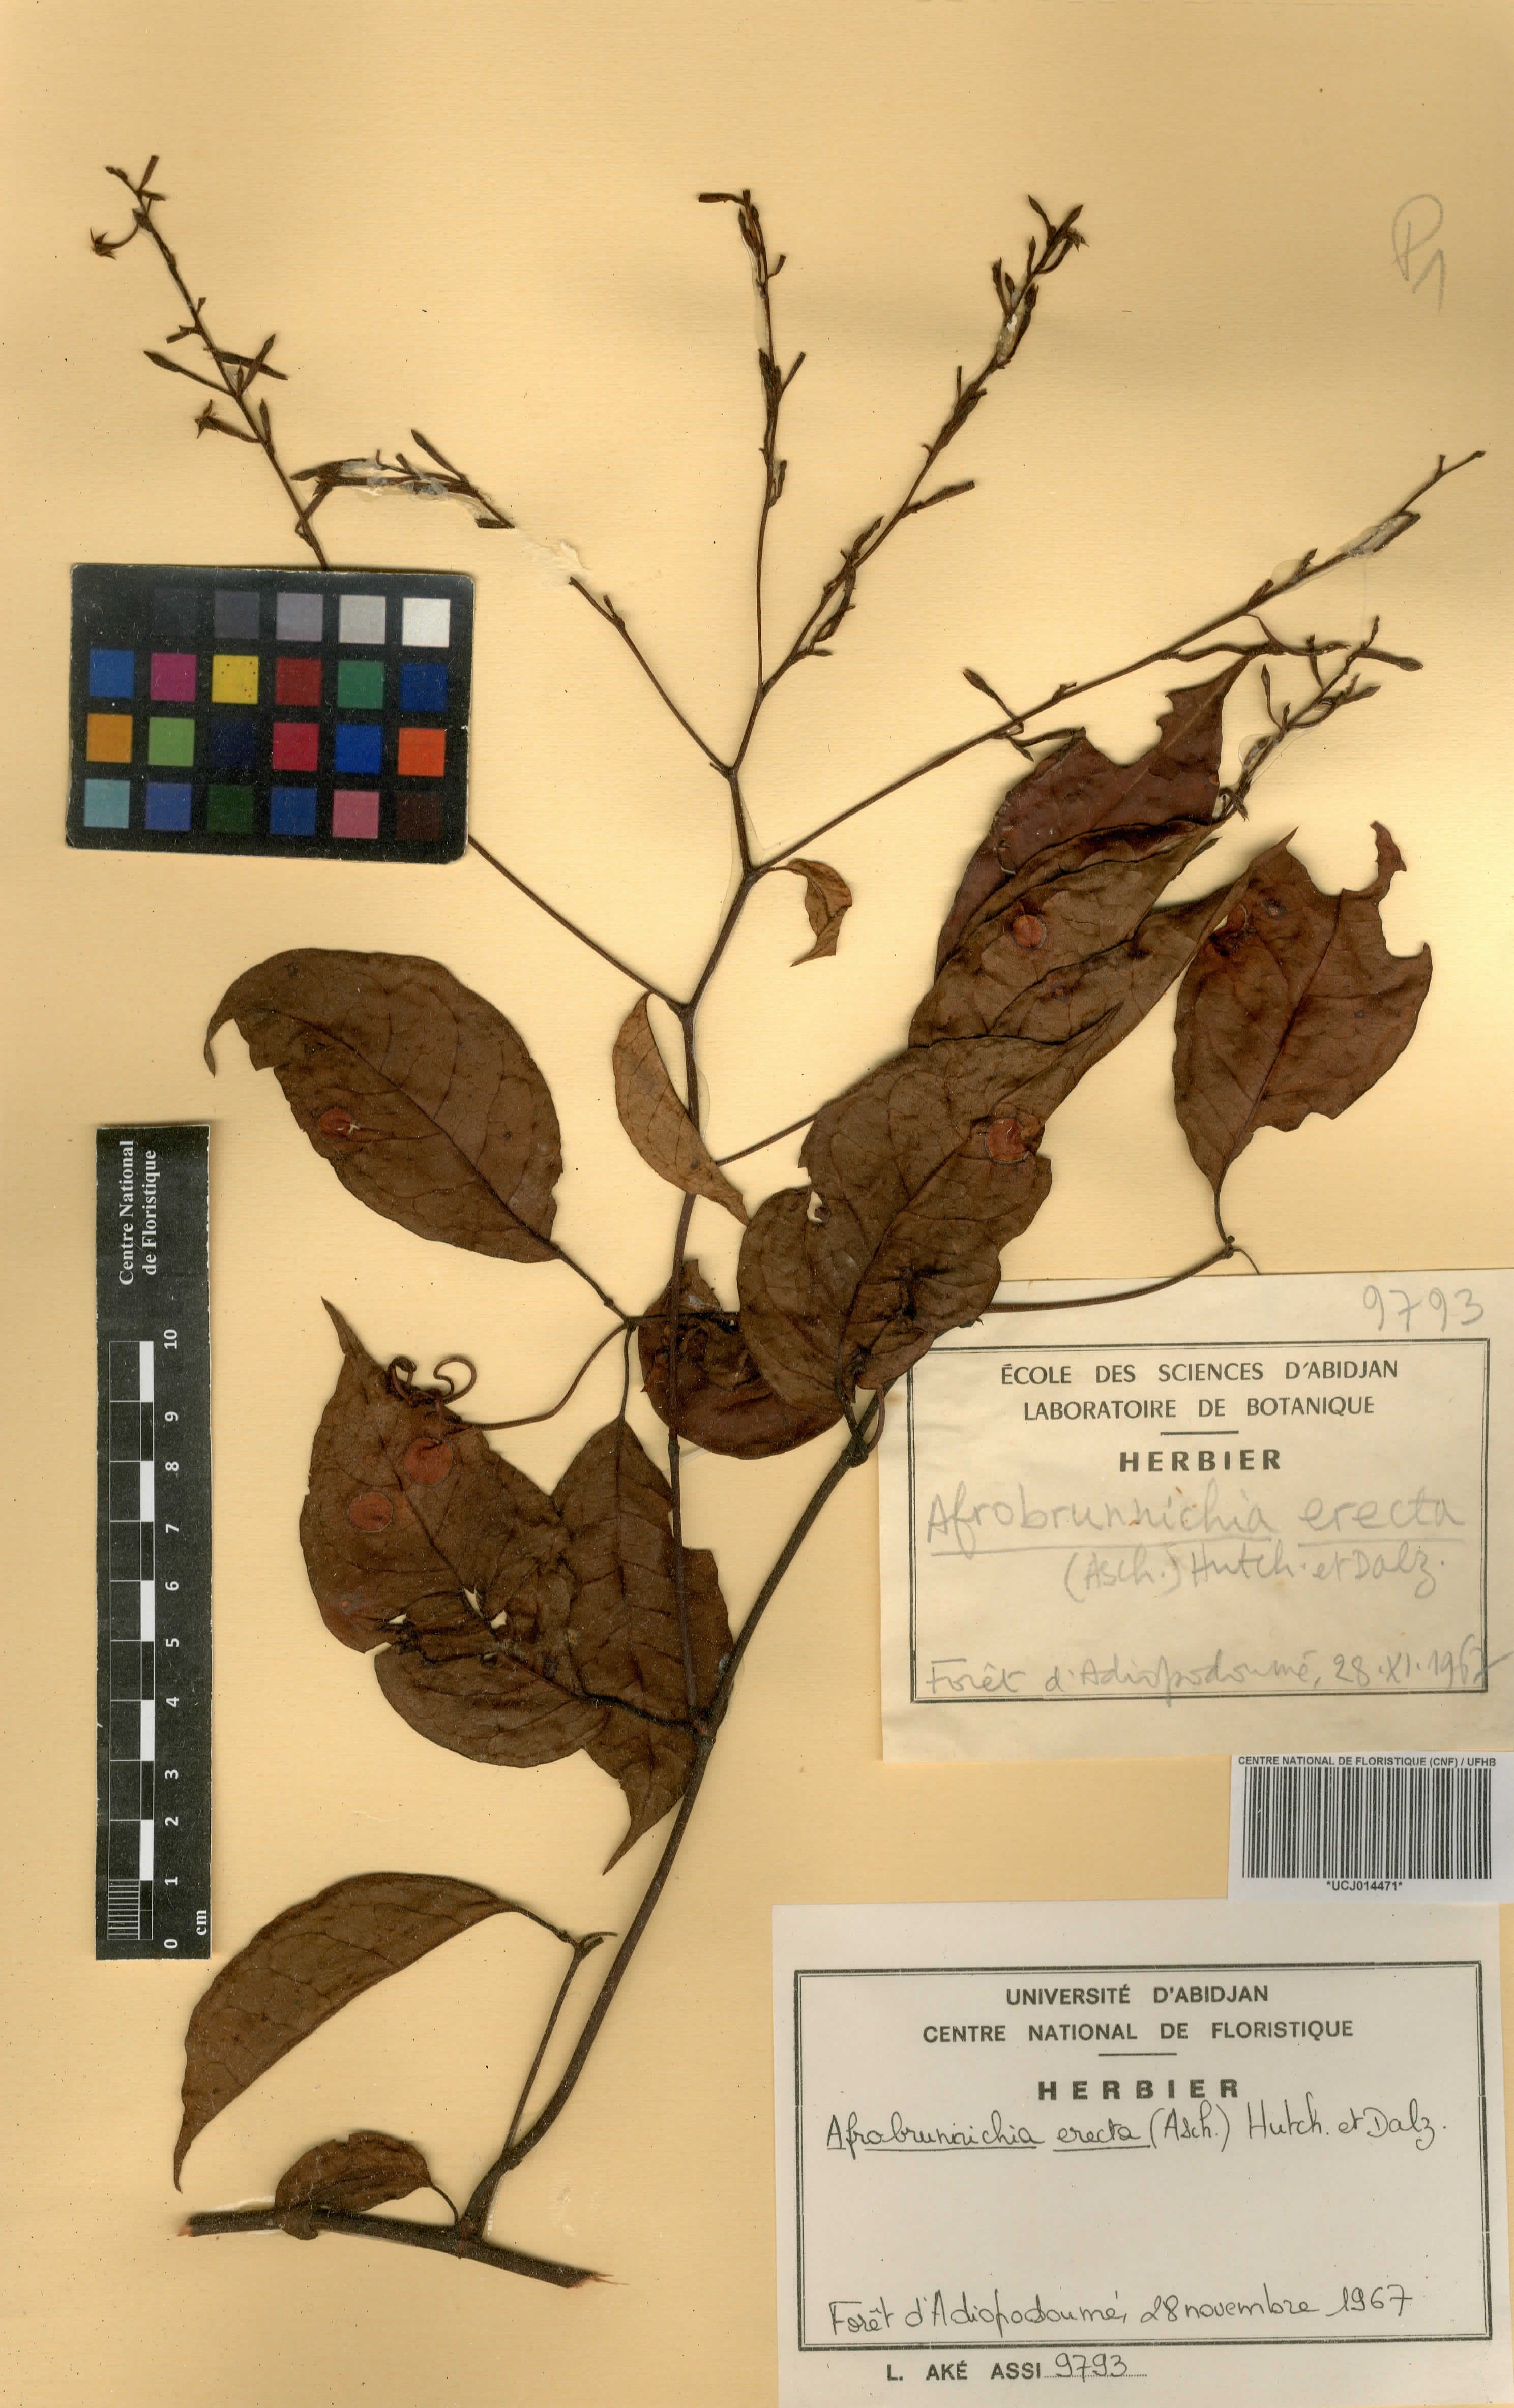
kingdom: Plantae
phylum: Tracheophyta
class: Magnoliopsida
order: Caryophyllales
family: Polygonaceae
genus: Afrobrunnichia
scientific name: Afrobrunnichia erecta
